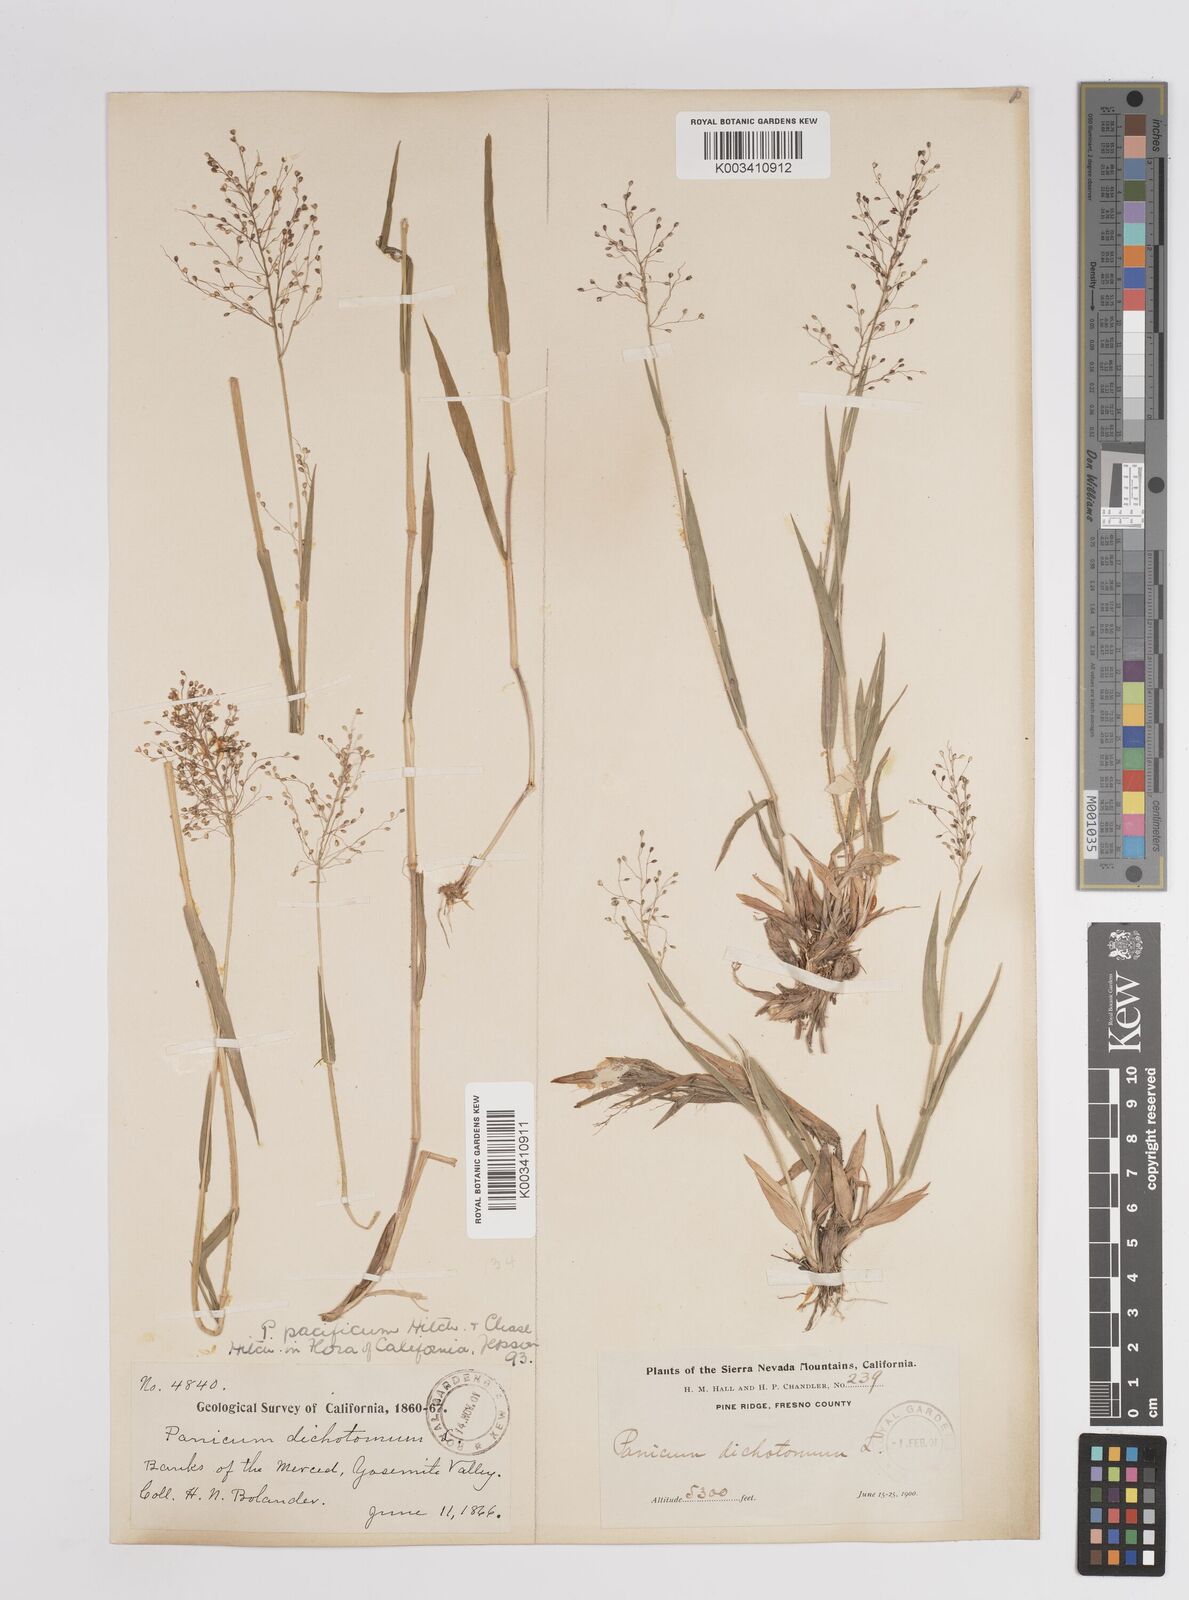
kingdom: Plantae
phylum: Tracheophyta
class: Liliopsida
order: Poales
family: Poaceae
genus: Dichanthelium
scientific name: Dichanthelium implicatum
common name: Slender-stemmed panicgrass
